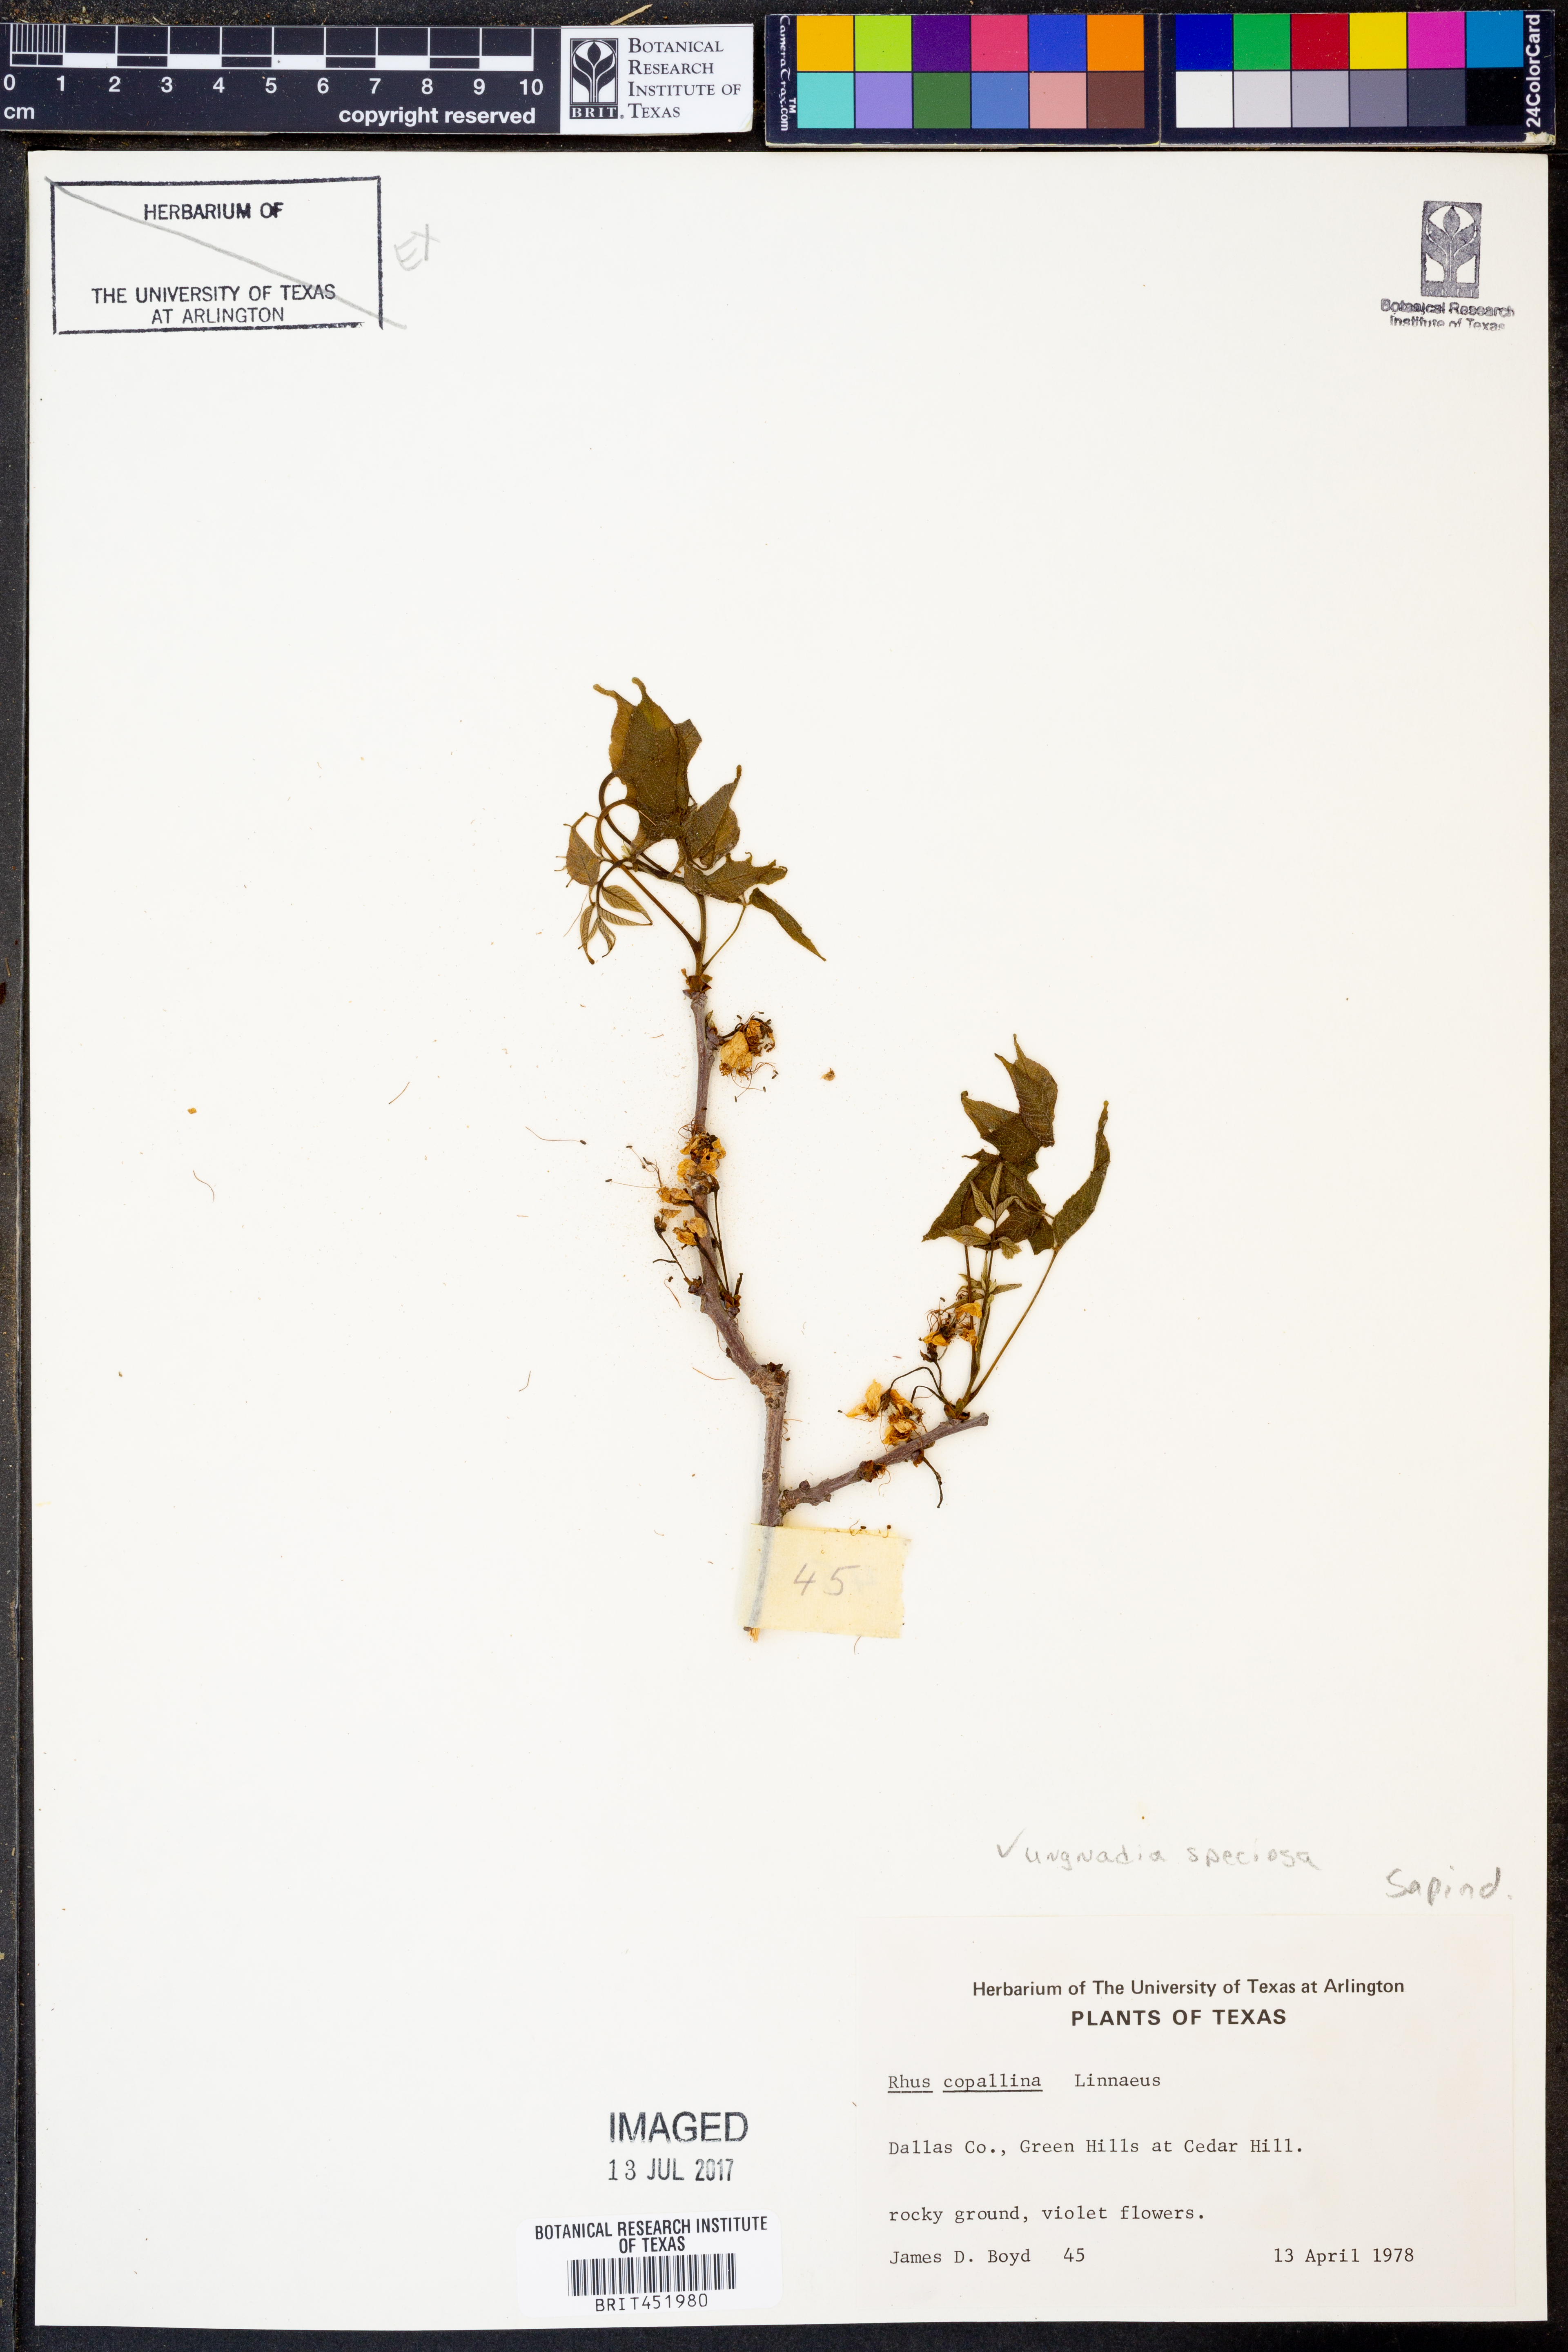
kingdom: Plantae
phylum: Tracheophyta
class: Magnoliopsida
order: Sapindales
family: Anacardiaceae
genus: Rhus
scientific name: Rhus copallina
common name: Shining sumac
